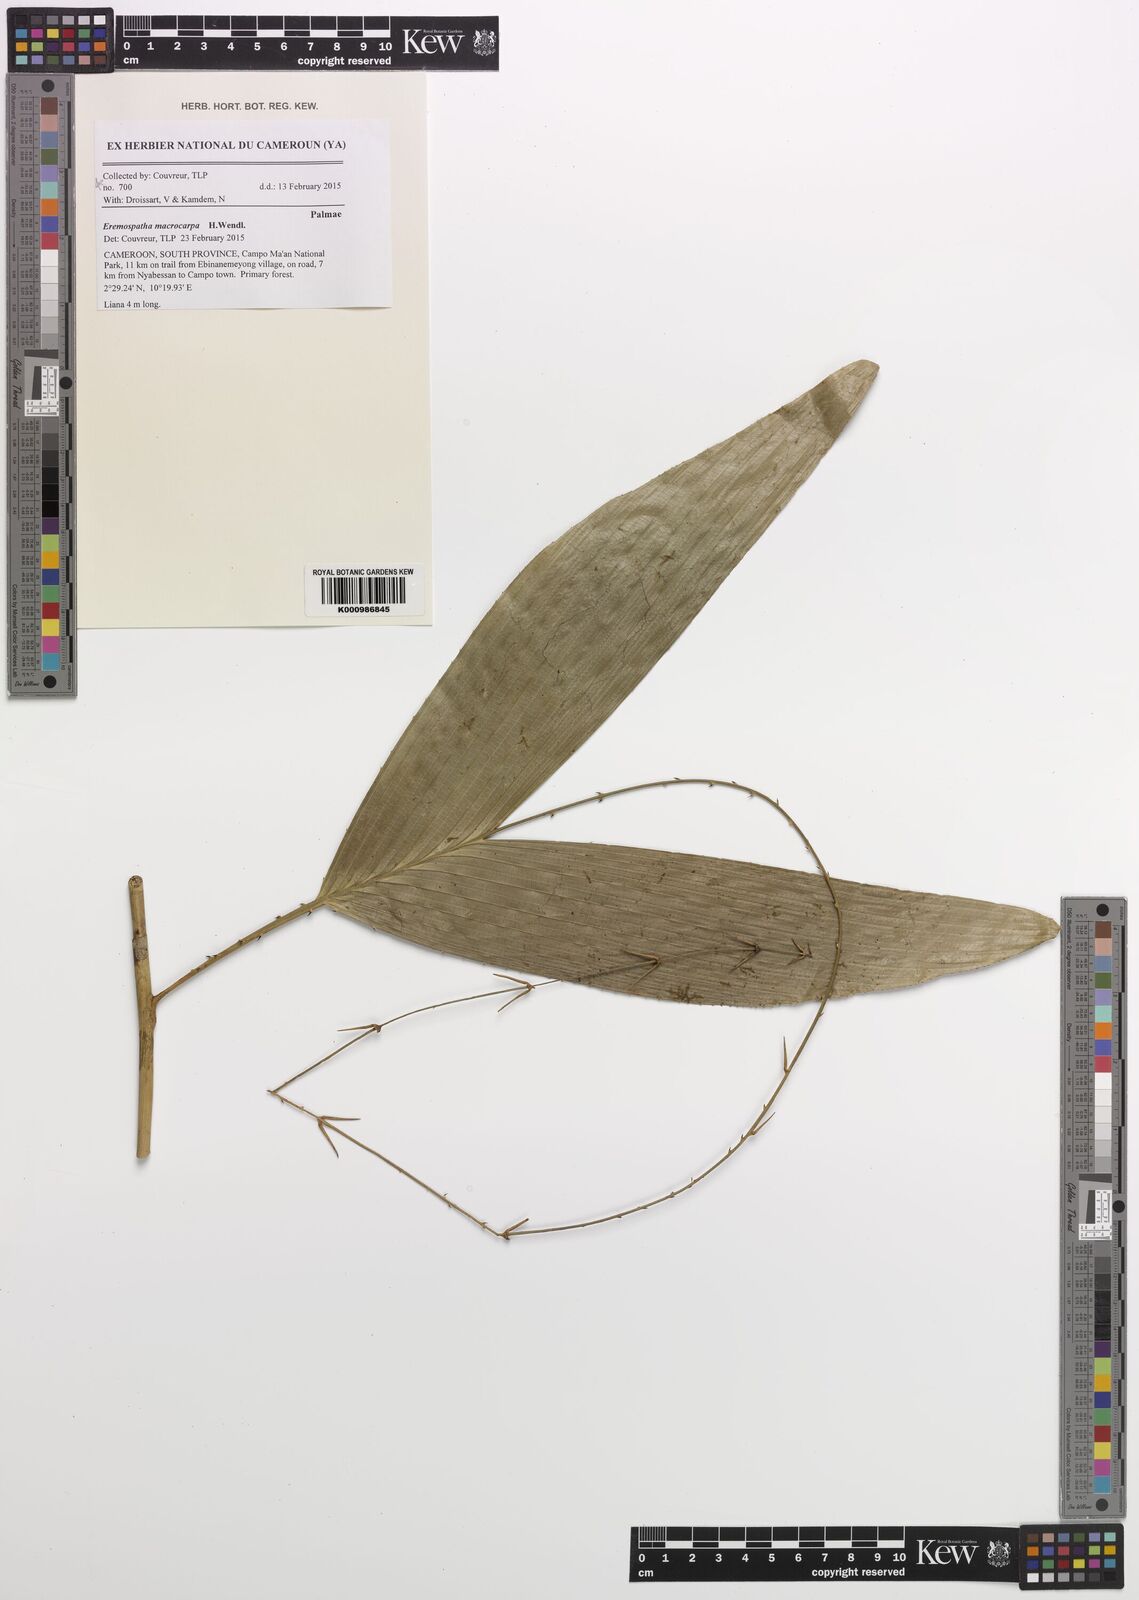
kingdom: Plantae
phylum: Tracheophyta
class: Liliopsida
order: Arecales
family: Arecaceae
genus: Eremospatha
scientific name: Eremospatha macrocarpa
